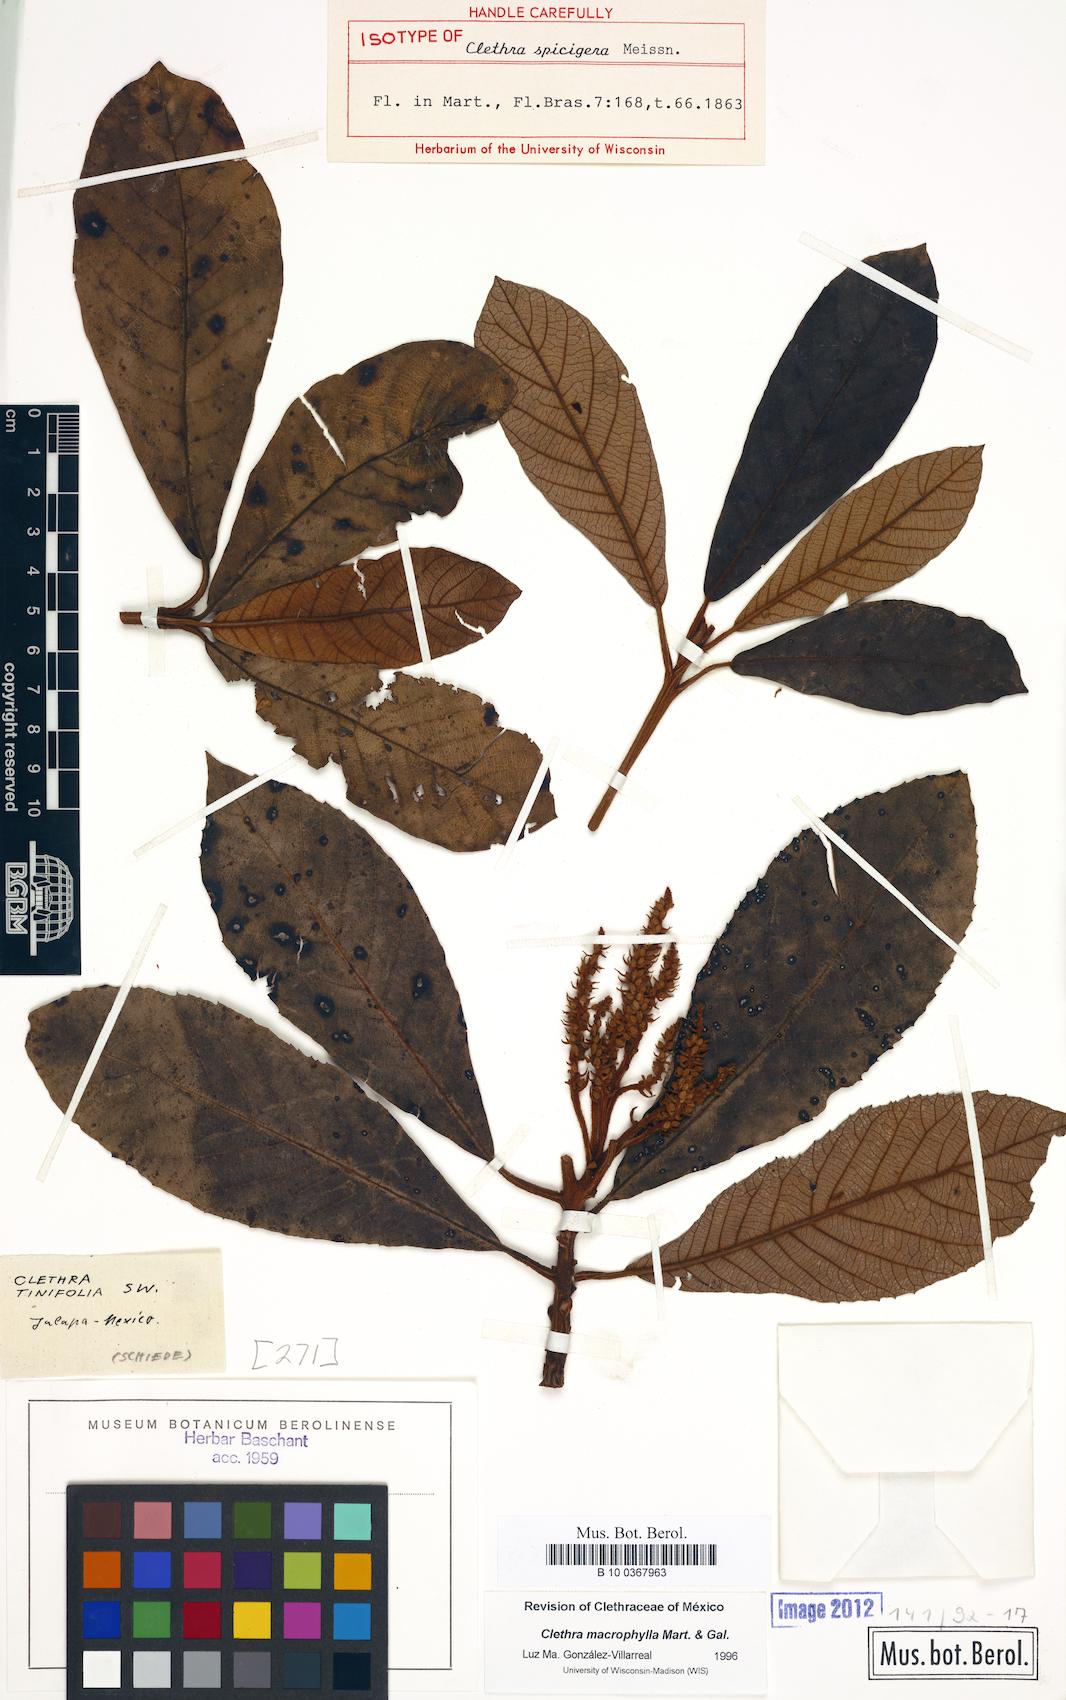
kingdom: Plantae
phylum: Tracheophyta
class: Magnoliopsida
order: Ericales
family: Clethraceae
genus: Clethra
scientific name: Clethra macrophylla
